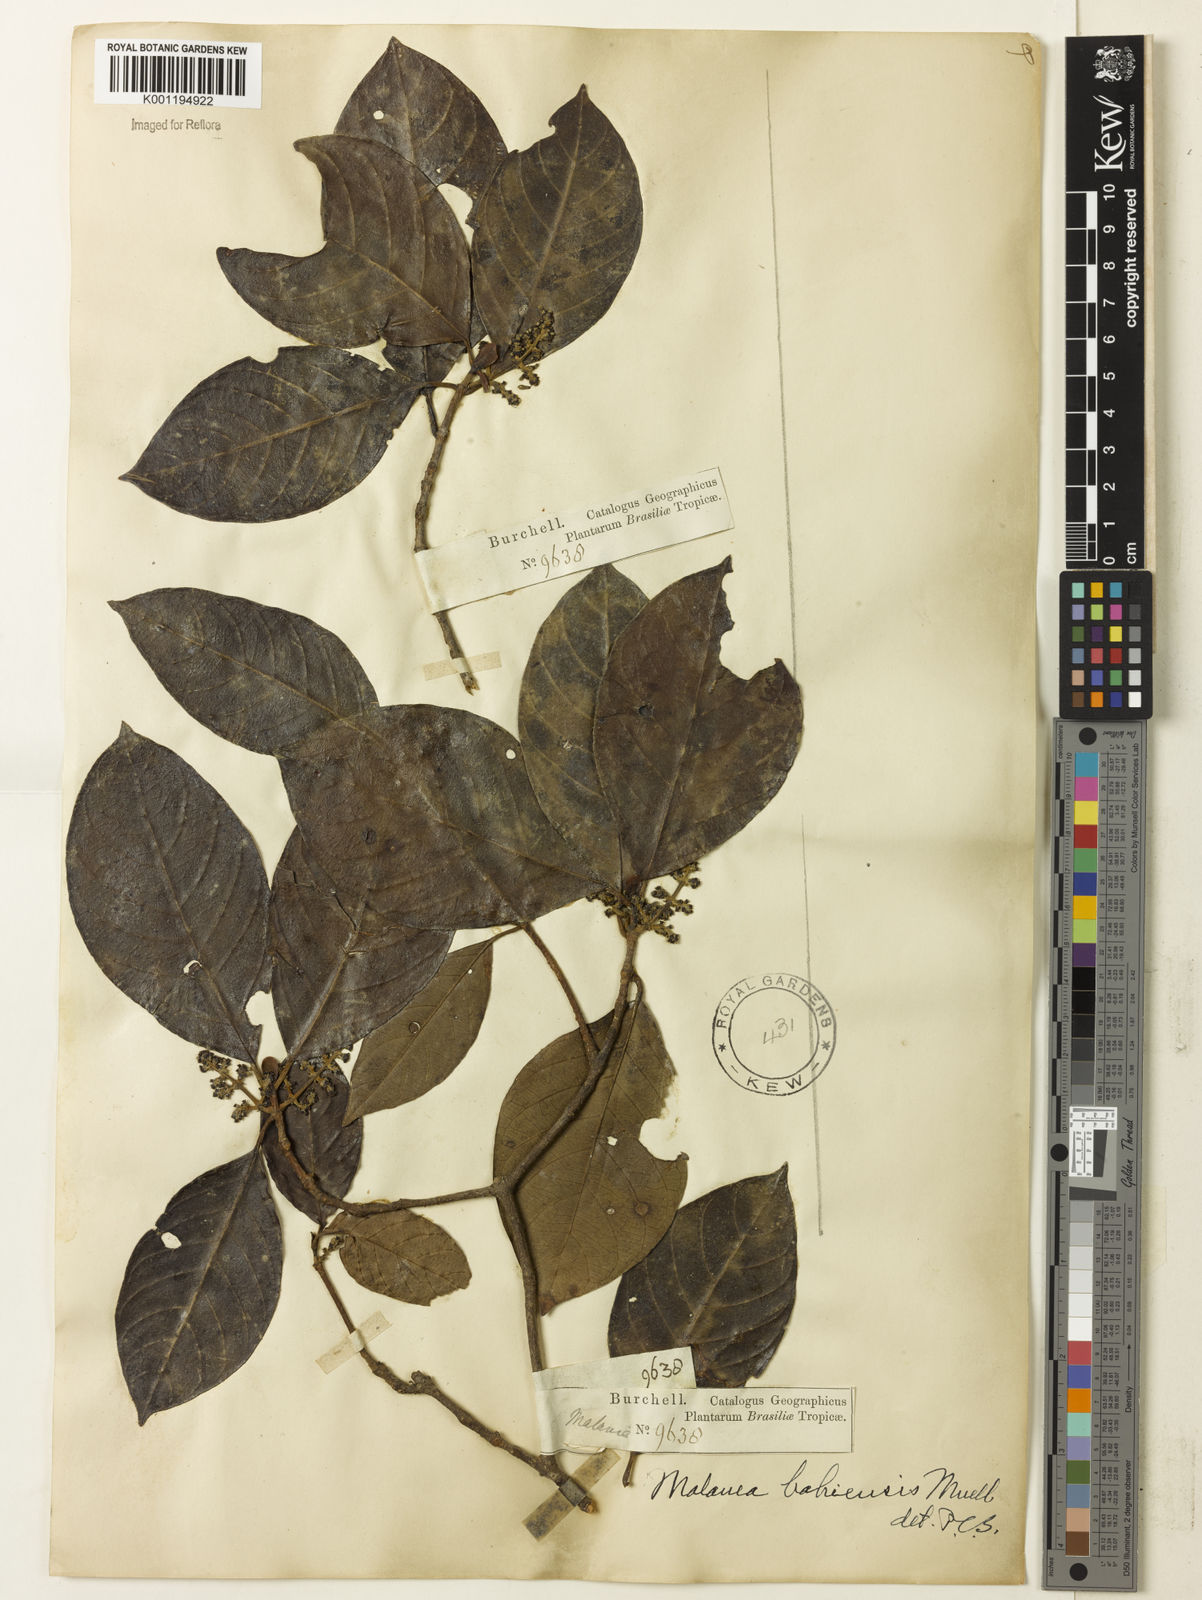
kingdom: Plantae
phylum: Tracheophyta
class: Magnoliopsida
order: Gentianales
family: Rubiaceae
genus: Malanea
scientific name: Malanea glabra
